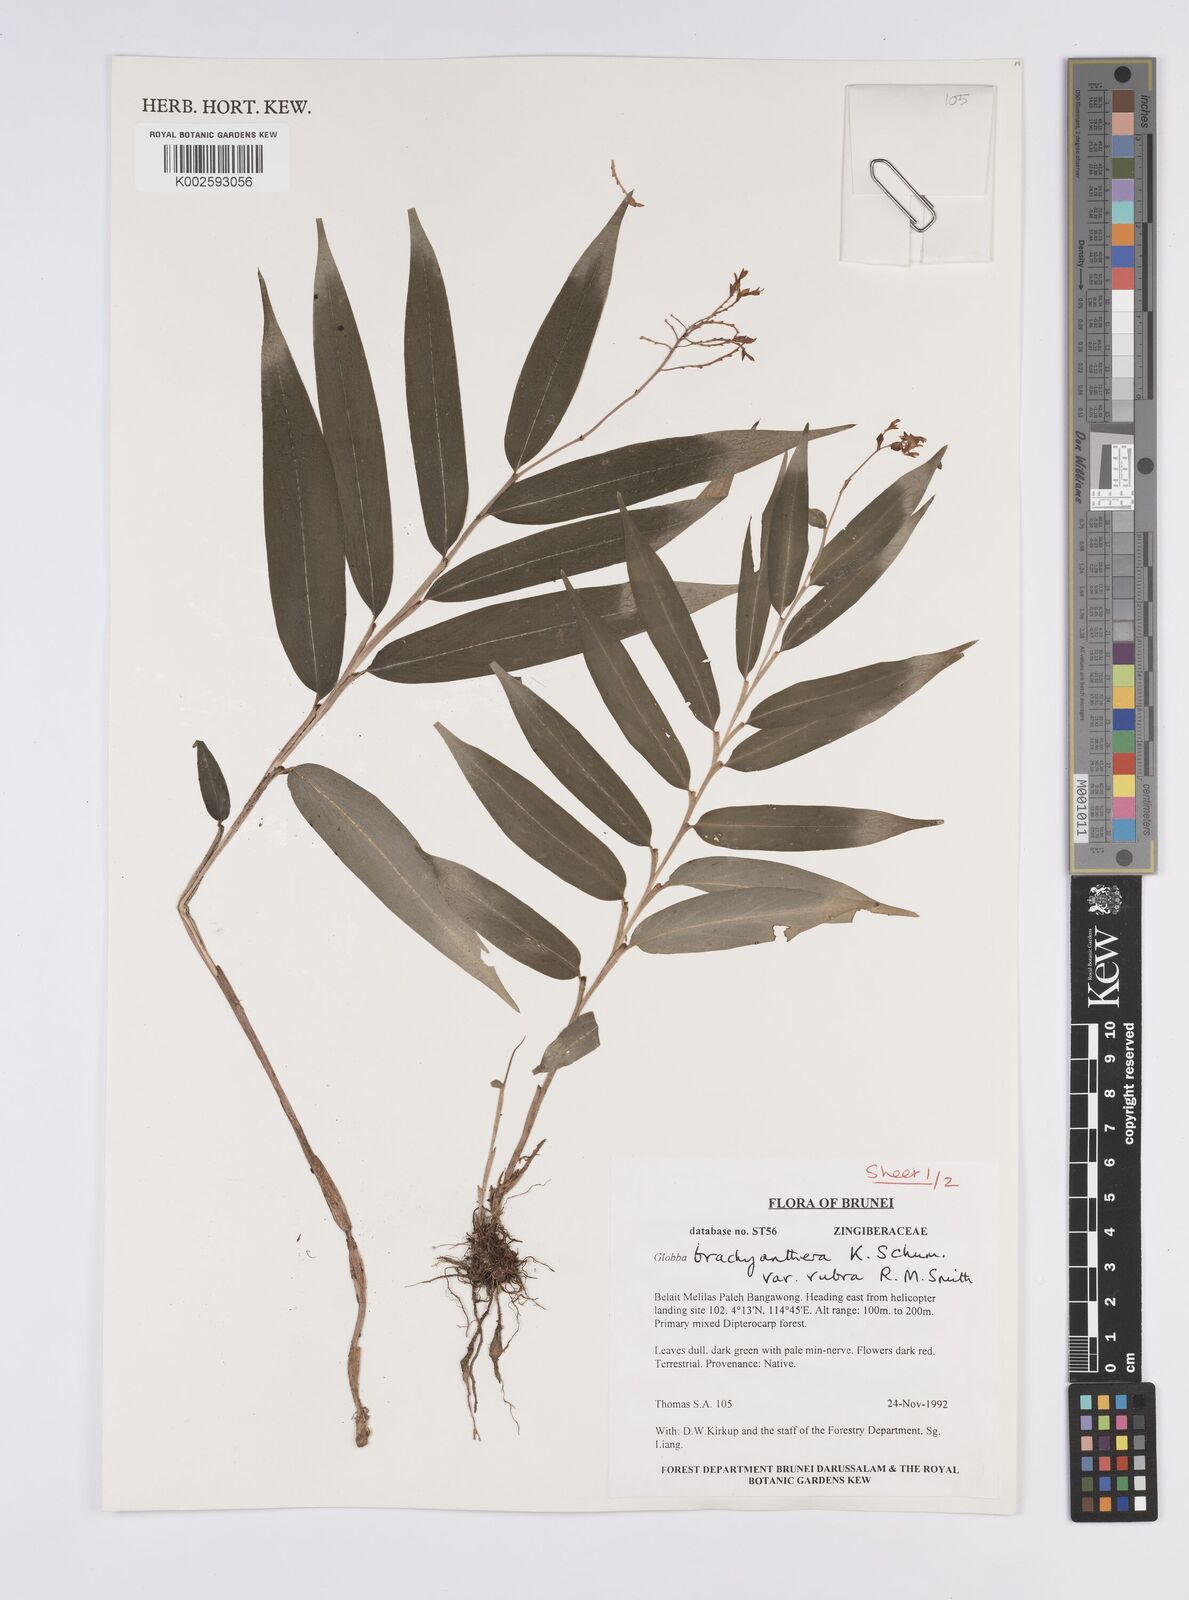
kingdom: Plantae
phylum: Tracheophyta
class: Liliopsida
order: Zingiberales
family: Zingiberaceae
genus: Globba
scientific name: Globba brachyanthera
